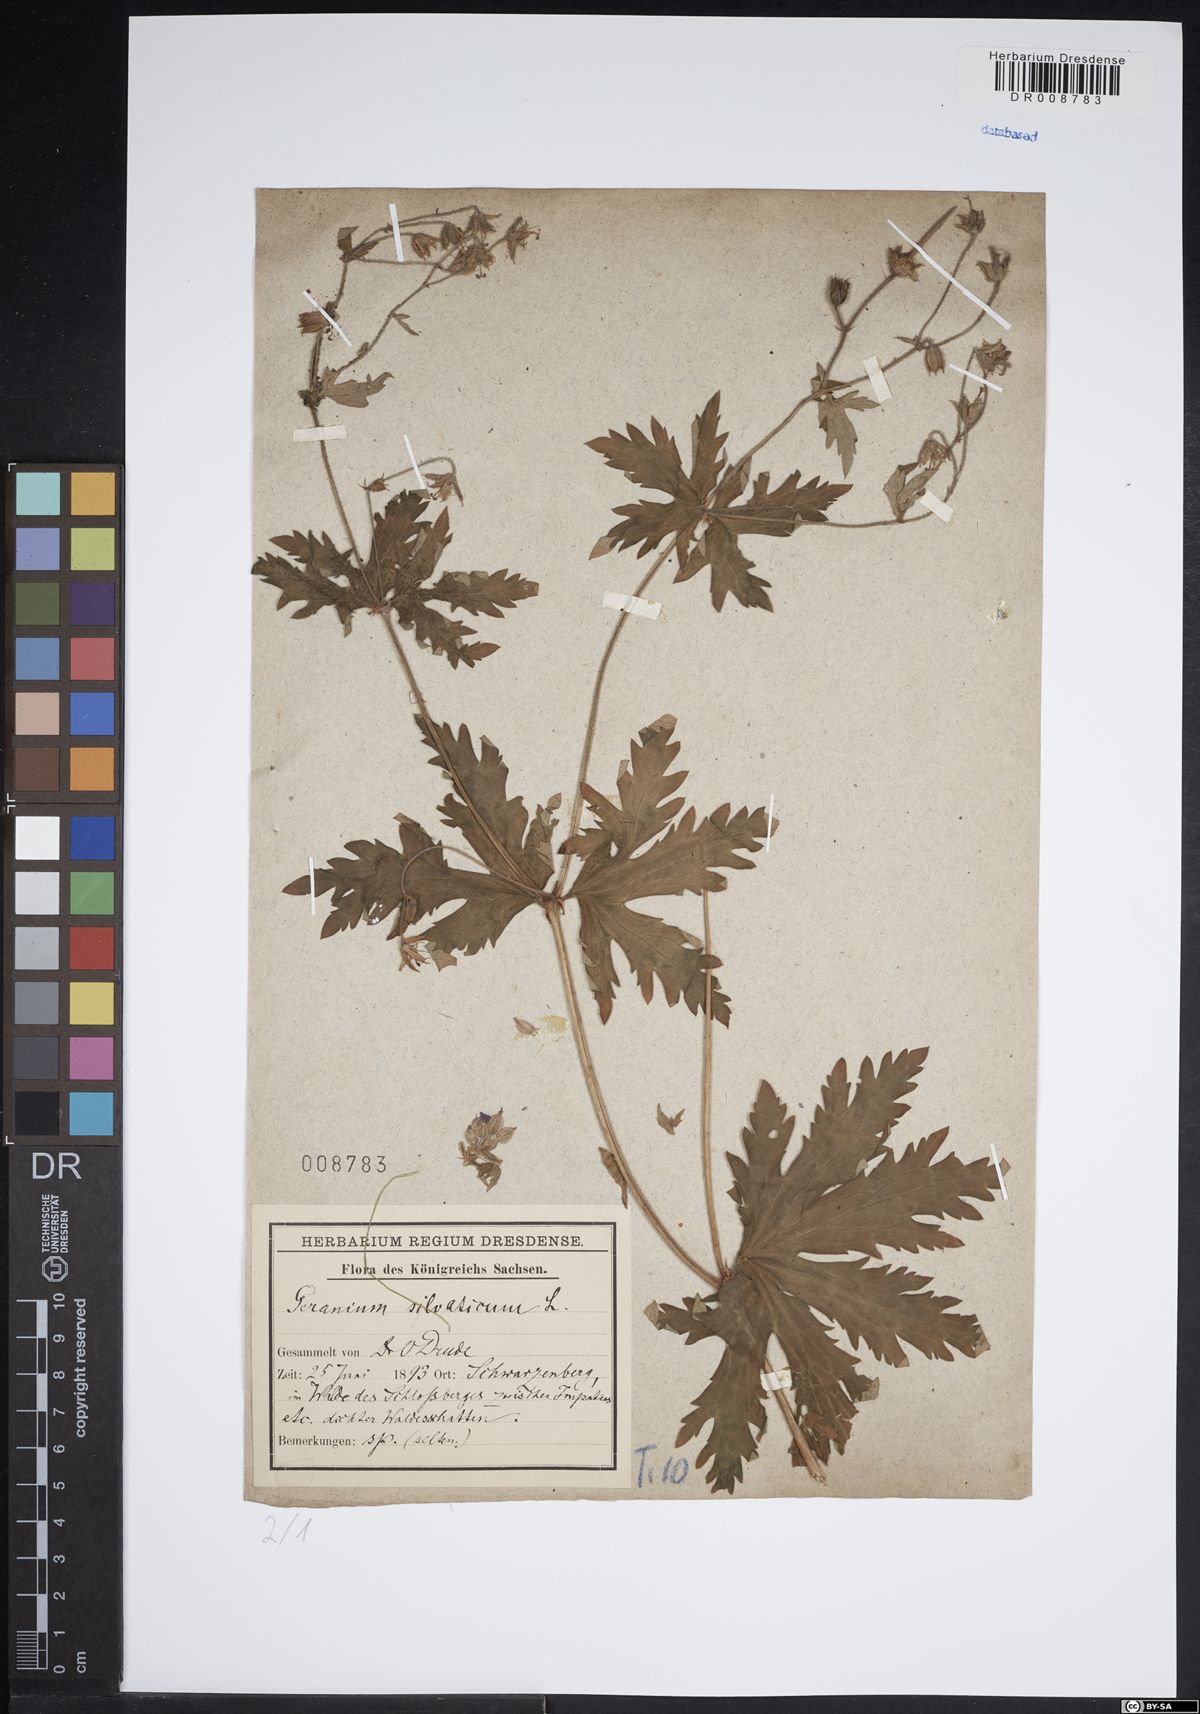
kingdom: Plantae
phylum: Tracheophyta
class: Magnoliopsida
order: Geraniales
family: Geraniaceae
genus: Geranium
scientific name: Geranium sylvaticum
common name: Wood crane's-bill
